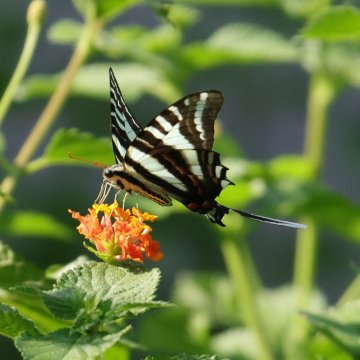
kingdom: Animalia
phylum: Arthropoda
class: Insecta
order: Lepidoptera
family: Papilionidae
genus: Protographium
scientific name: Protographium marcellus
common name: Zebra Swallowtail
